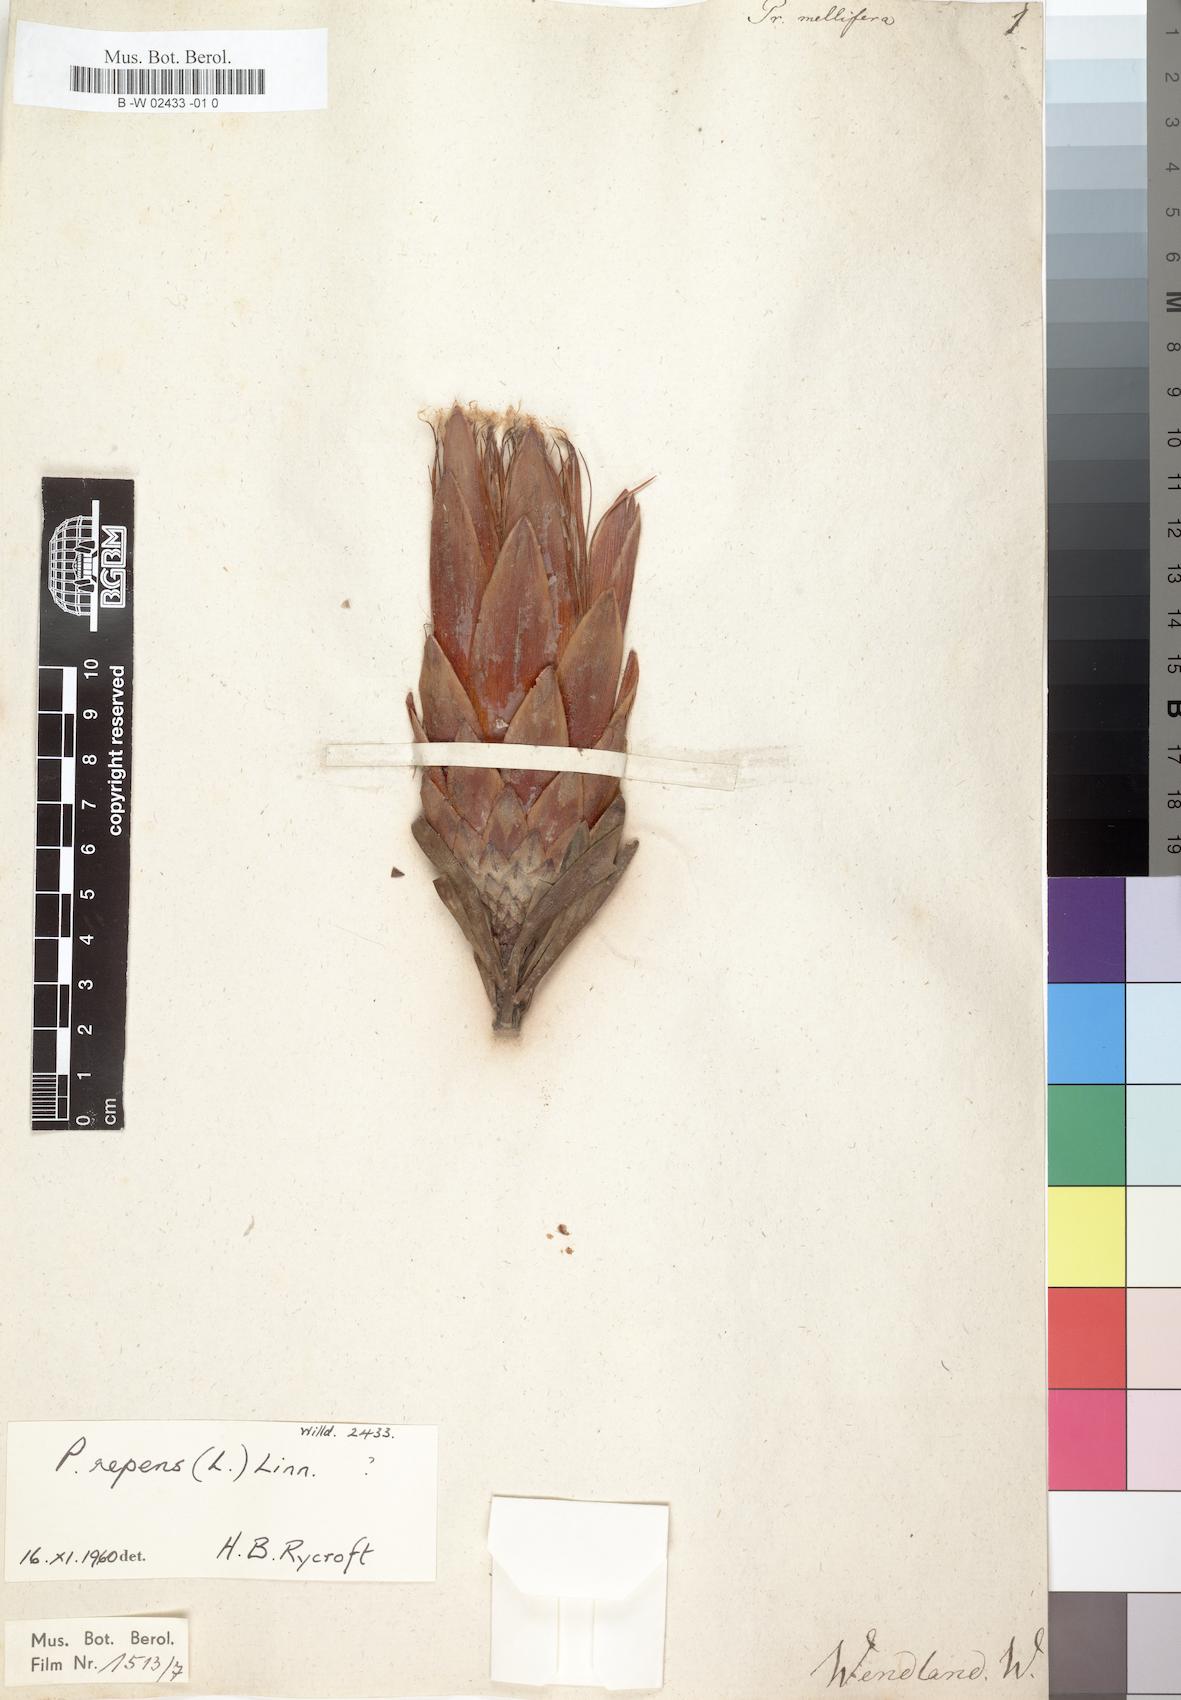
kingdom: Plantae
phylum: Tracheophyta
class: Magnoliopsida
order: Proteales
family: Proteaceae
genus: Protea
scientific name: Protea repens
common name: Sugarbush
